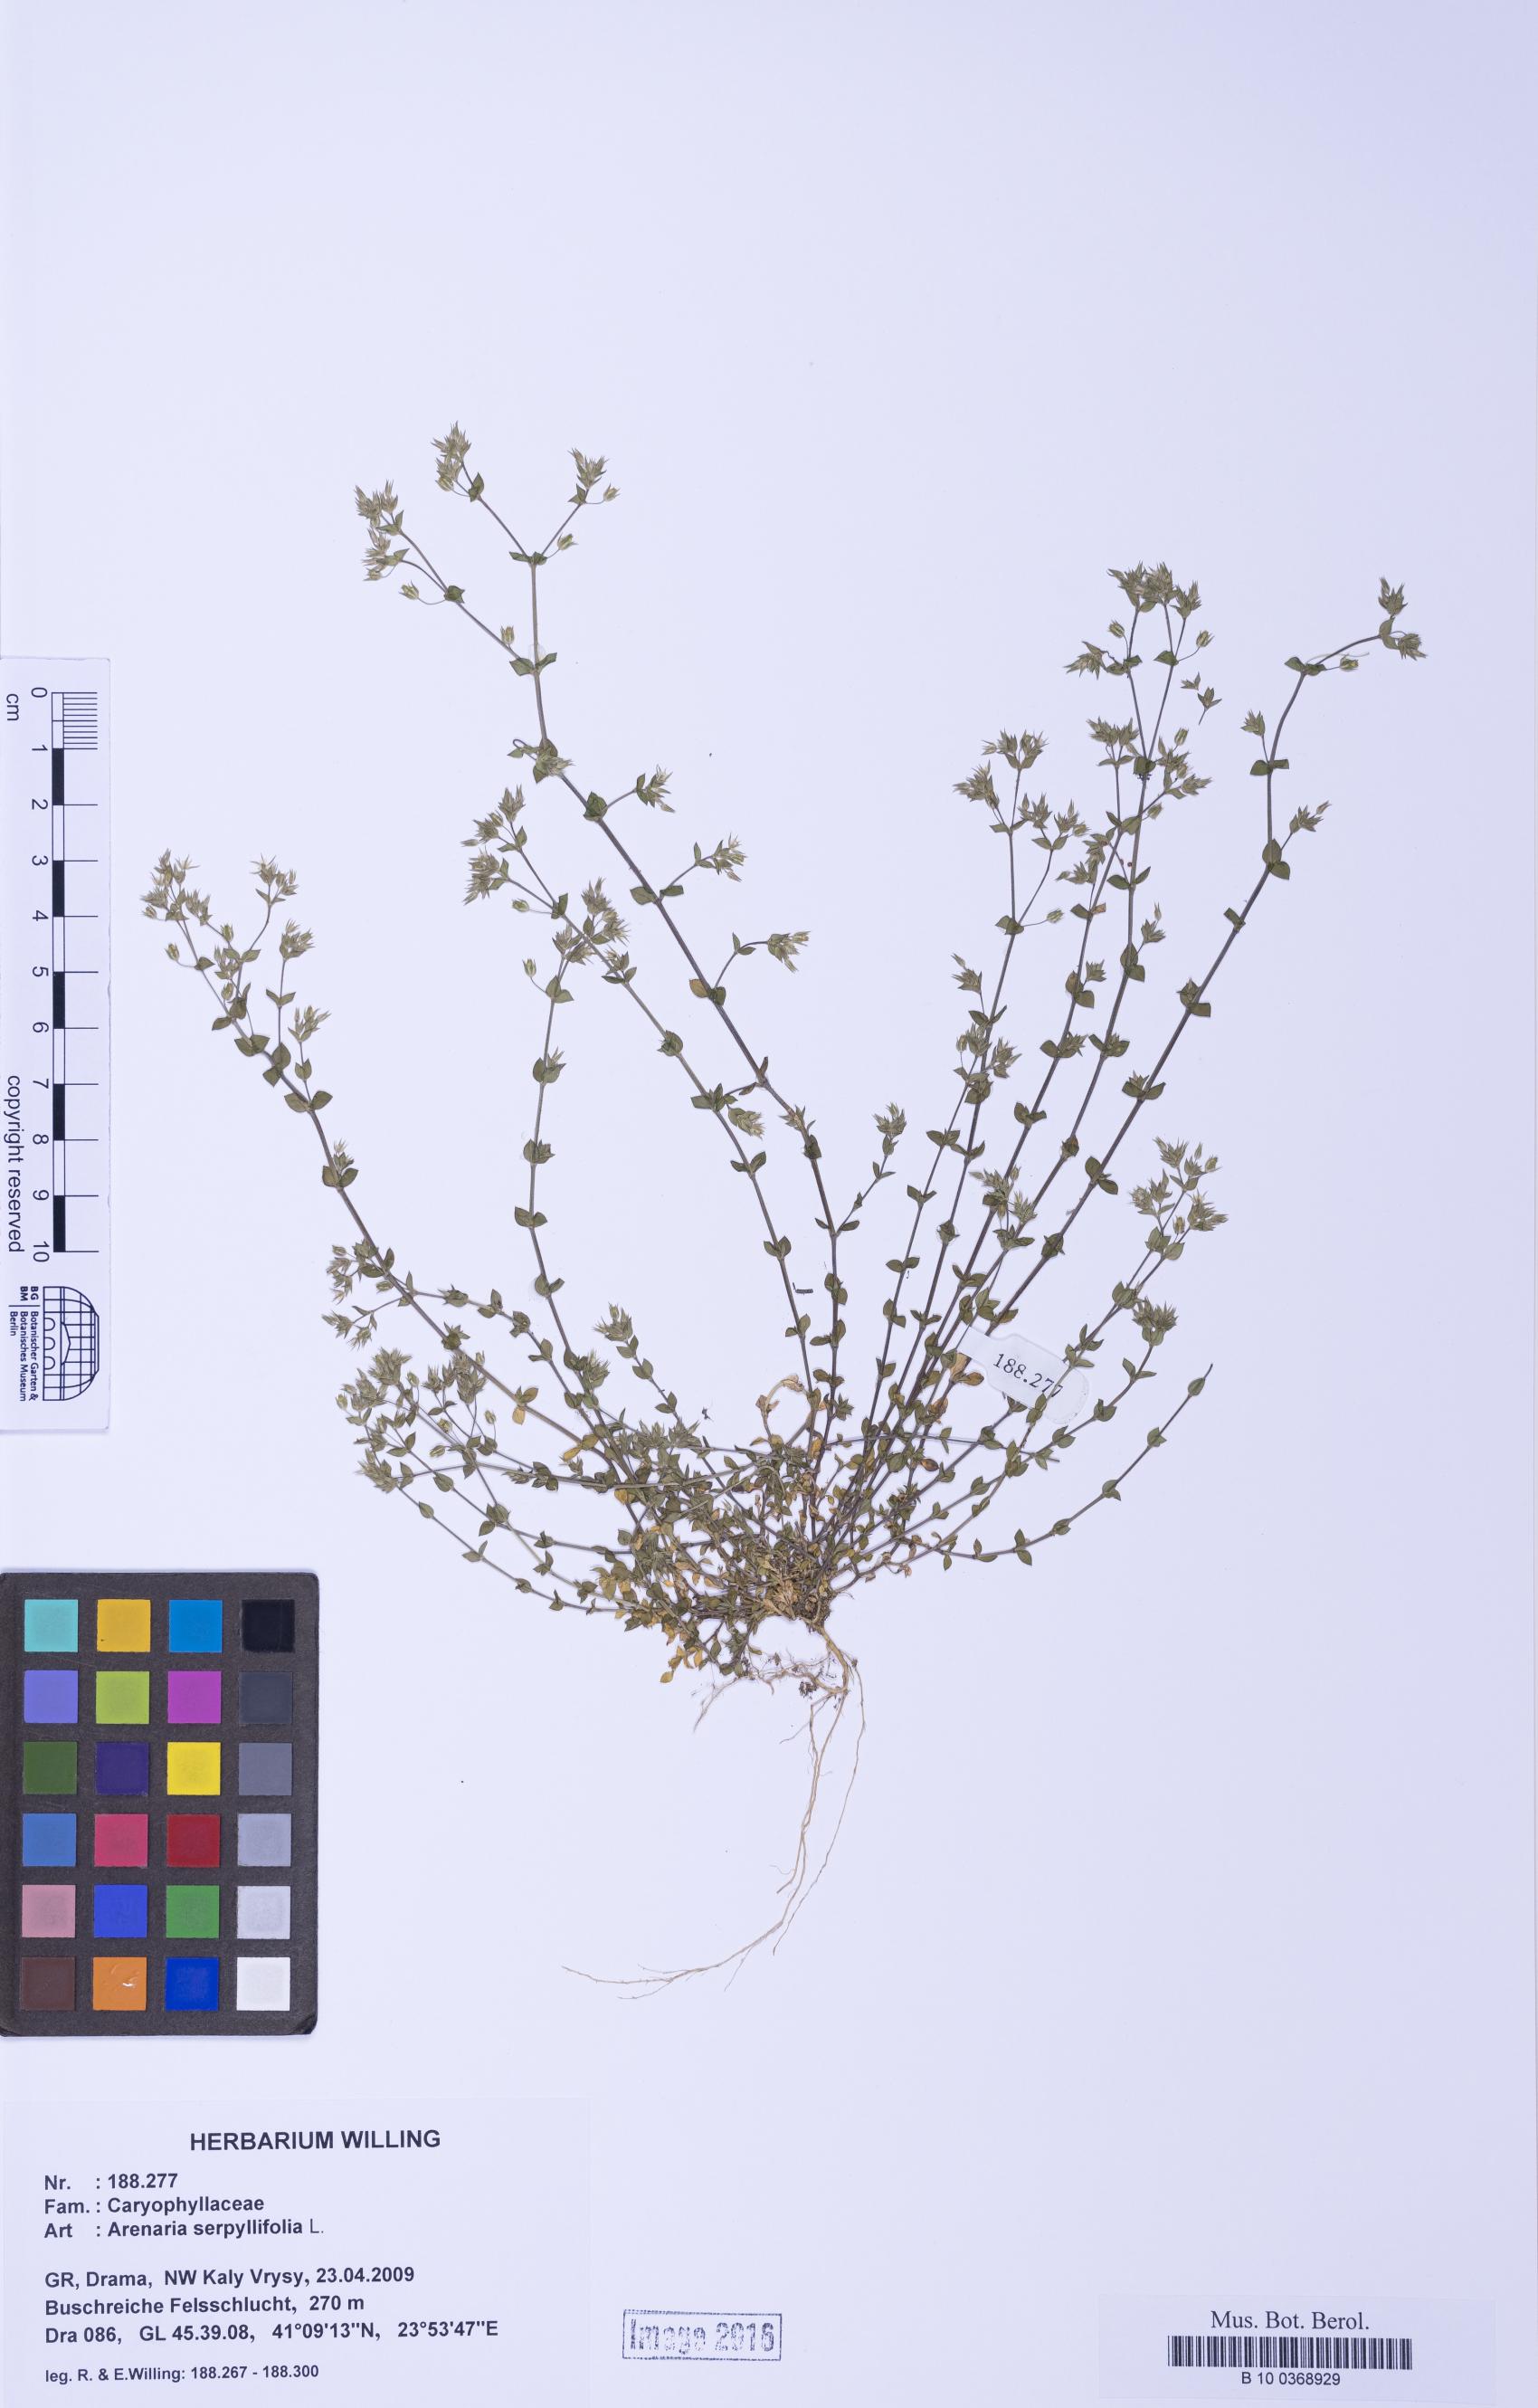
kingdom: Plantae
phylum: Tracheophyta
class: Magnoliopsida
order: Caryophyllales
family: Caryophyllaceae
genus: Arenaria
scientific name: Arenaria serpyllifolia
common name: Thyme-leaved sandwort
